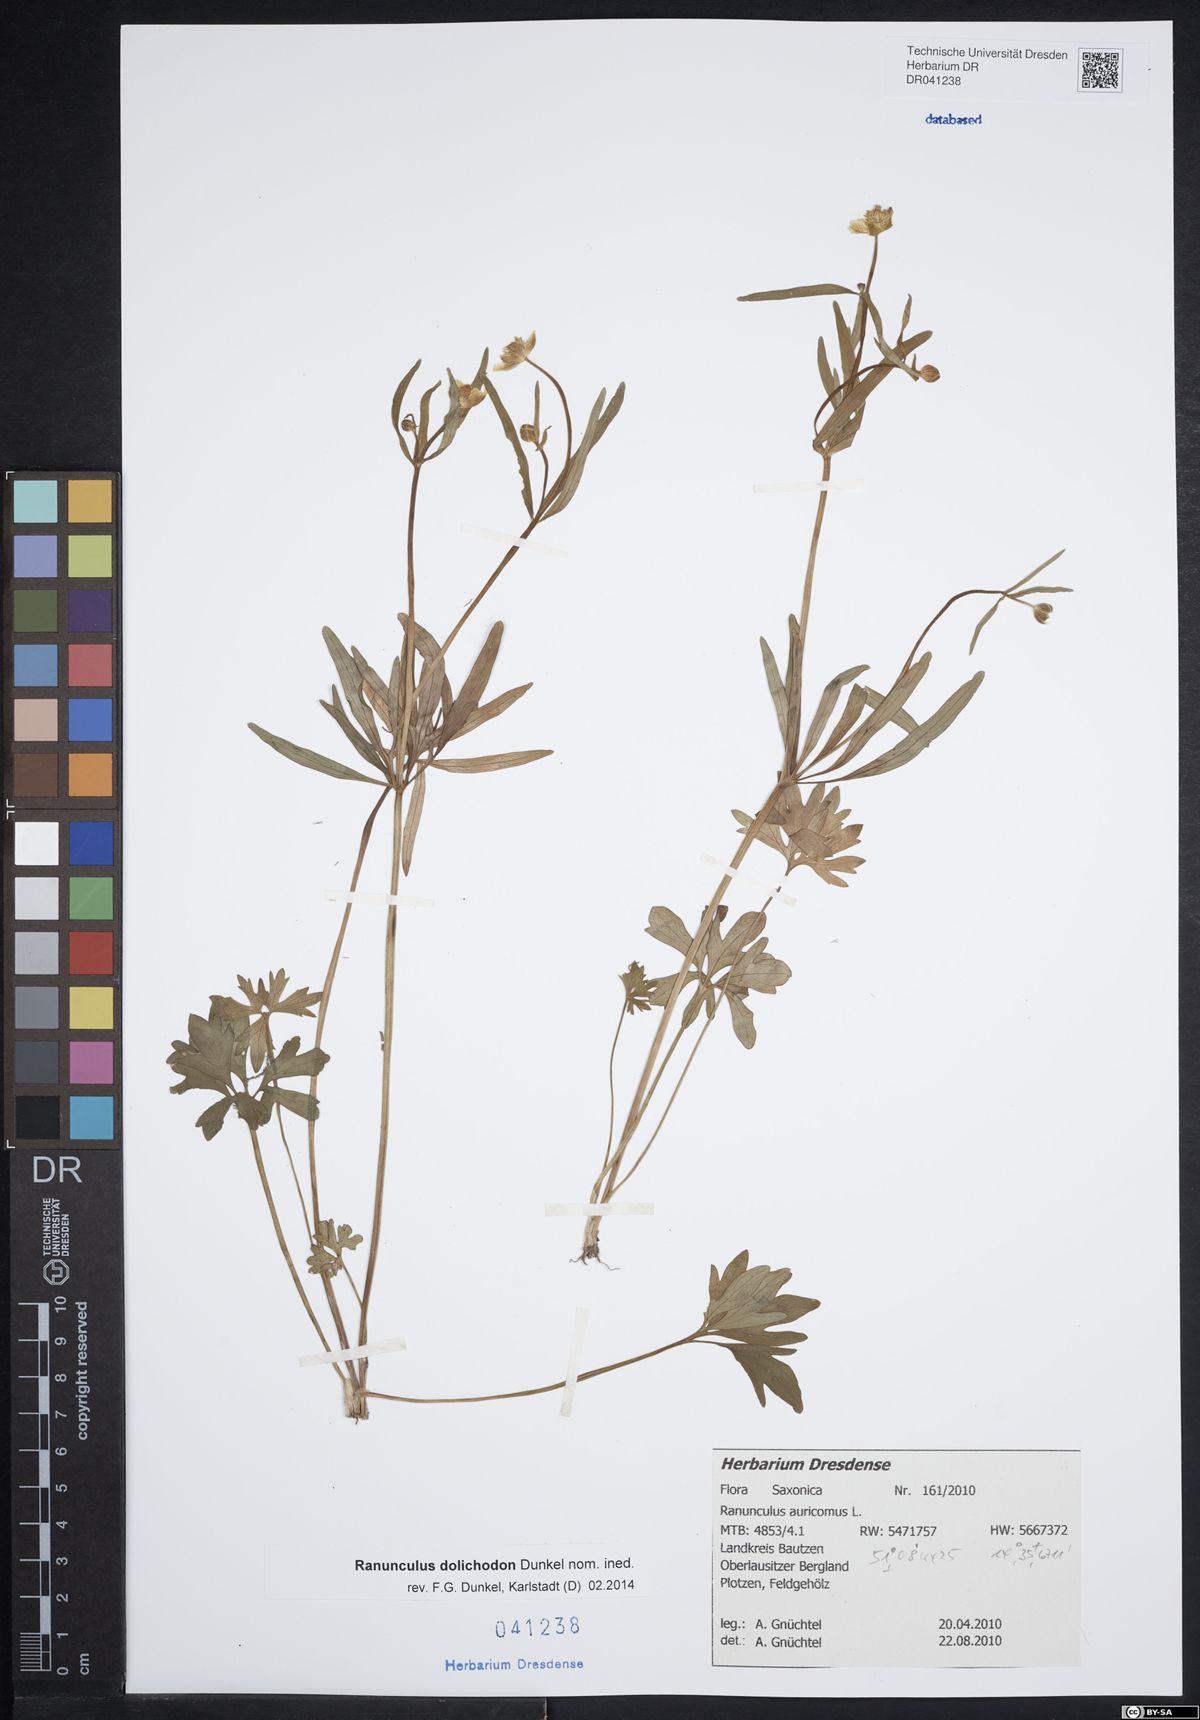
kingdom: Plantae
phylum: Tracheophyta
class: Magnoliopsida
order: Ranunculales
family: Ranunculaceae
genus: Ranunculus
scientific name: Ranunculus auricomus
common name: Goldilocks buttercup
